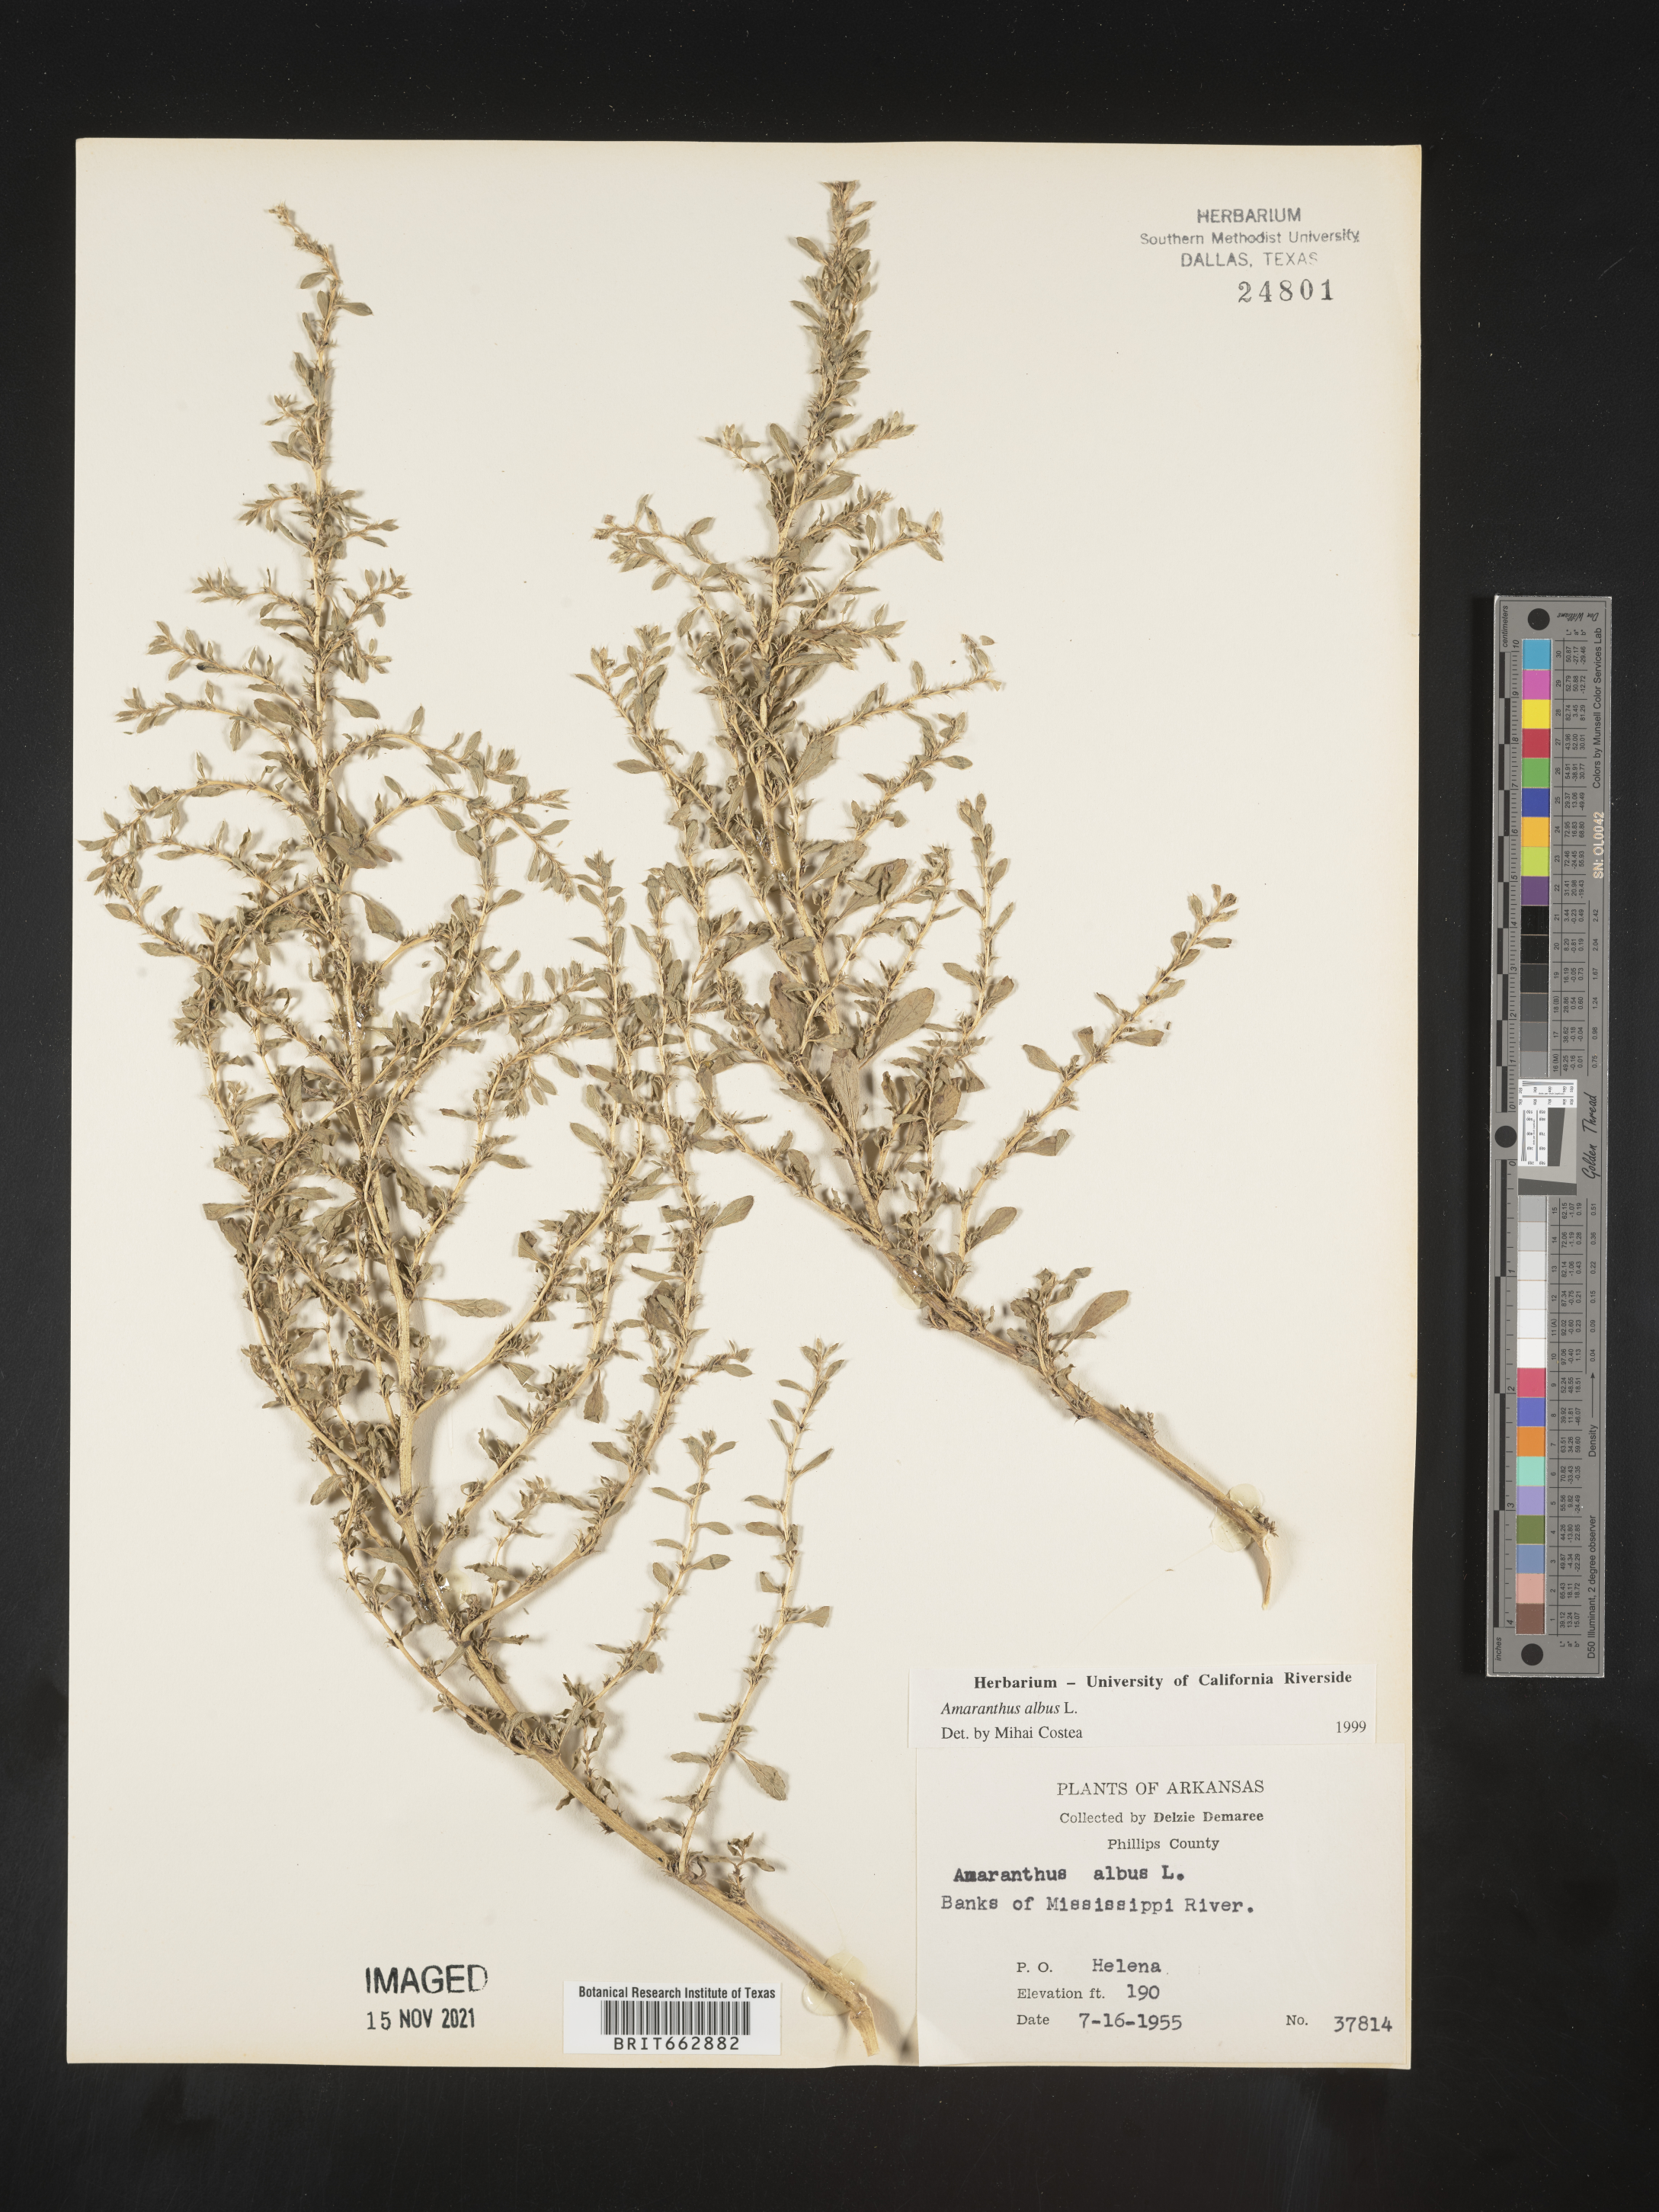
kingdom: Plantae
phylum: Tracheophyta
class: Magnoliopsida
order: Caryophyllales
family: Amaranthaceae
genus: Amaranthus
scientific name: Amaranthus albus
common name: White pigweed
